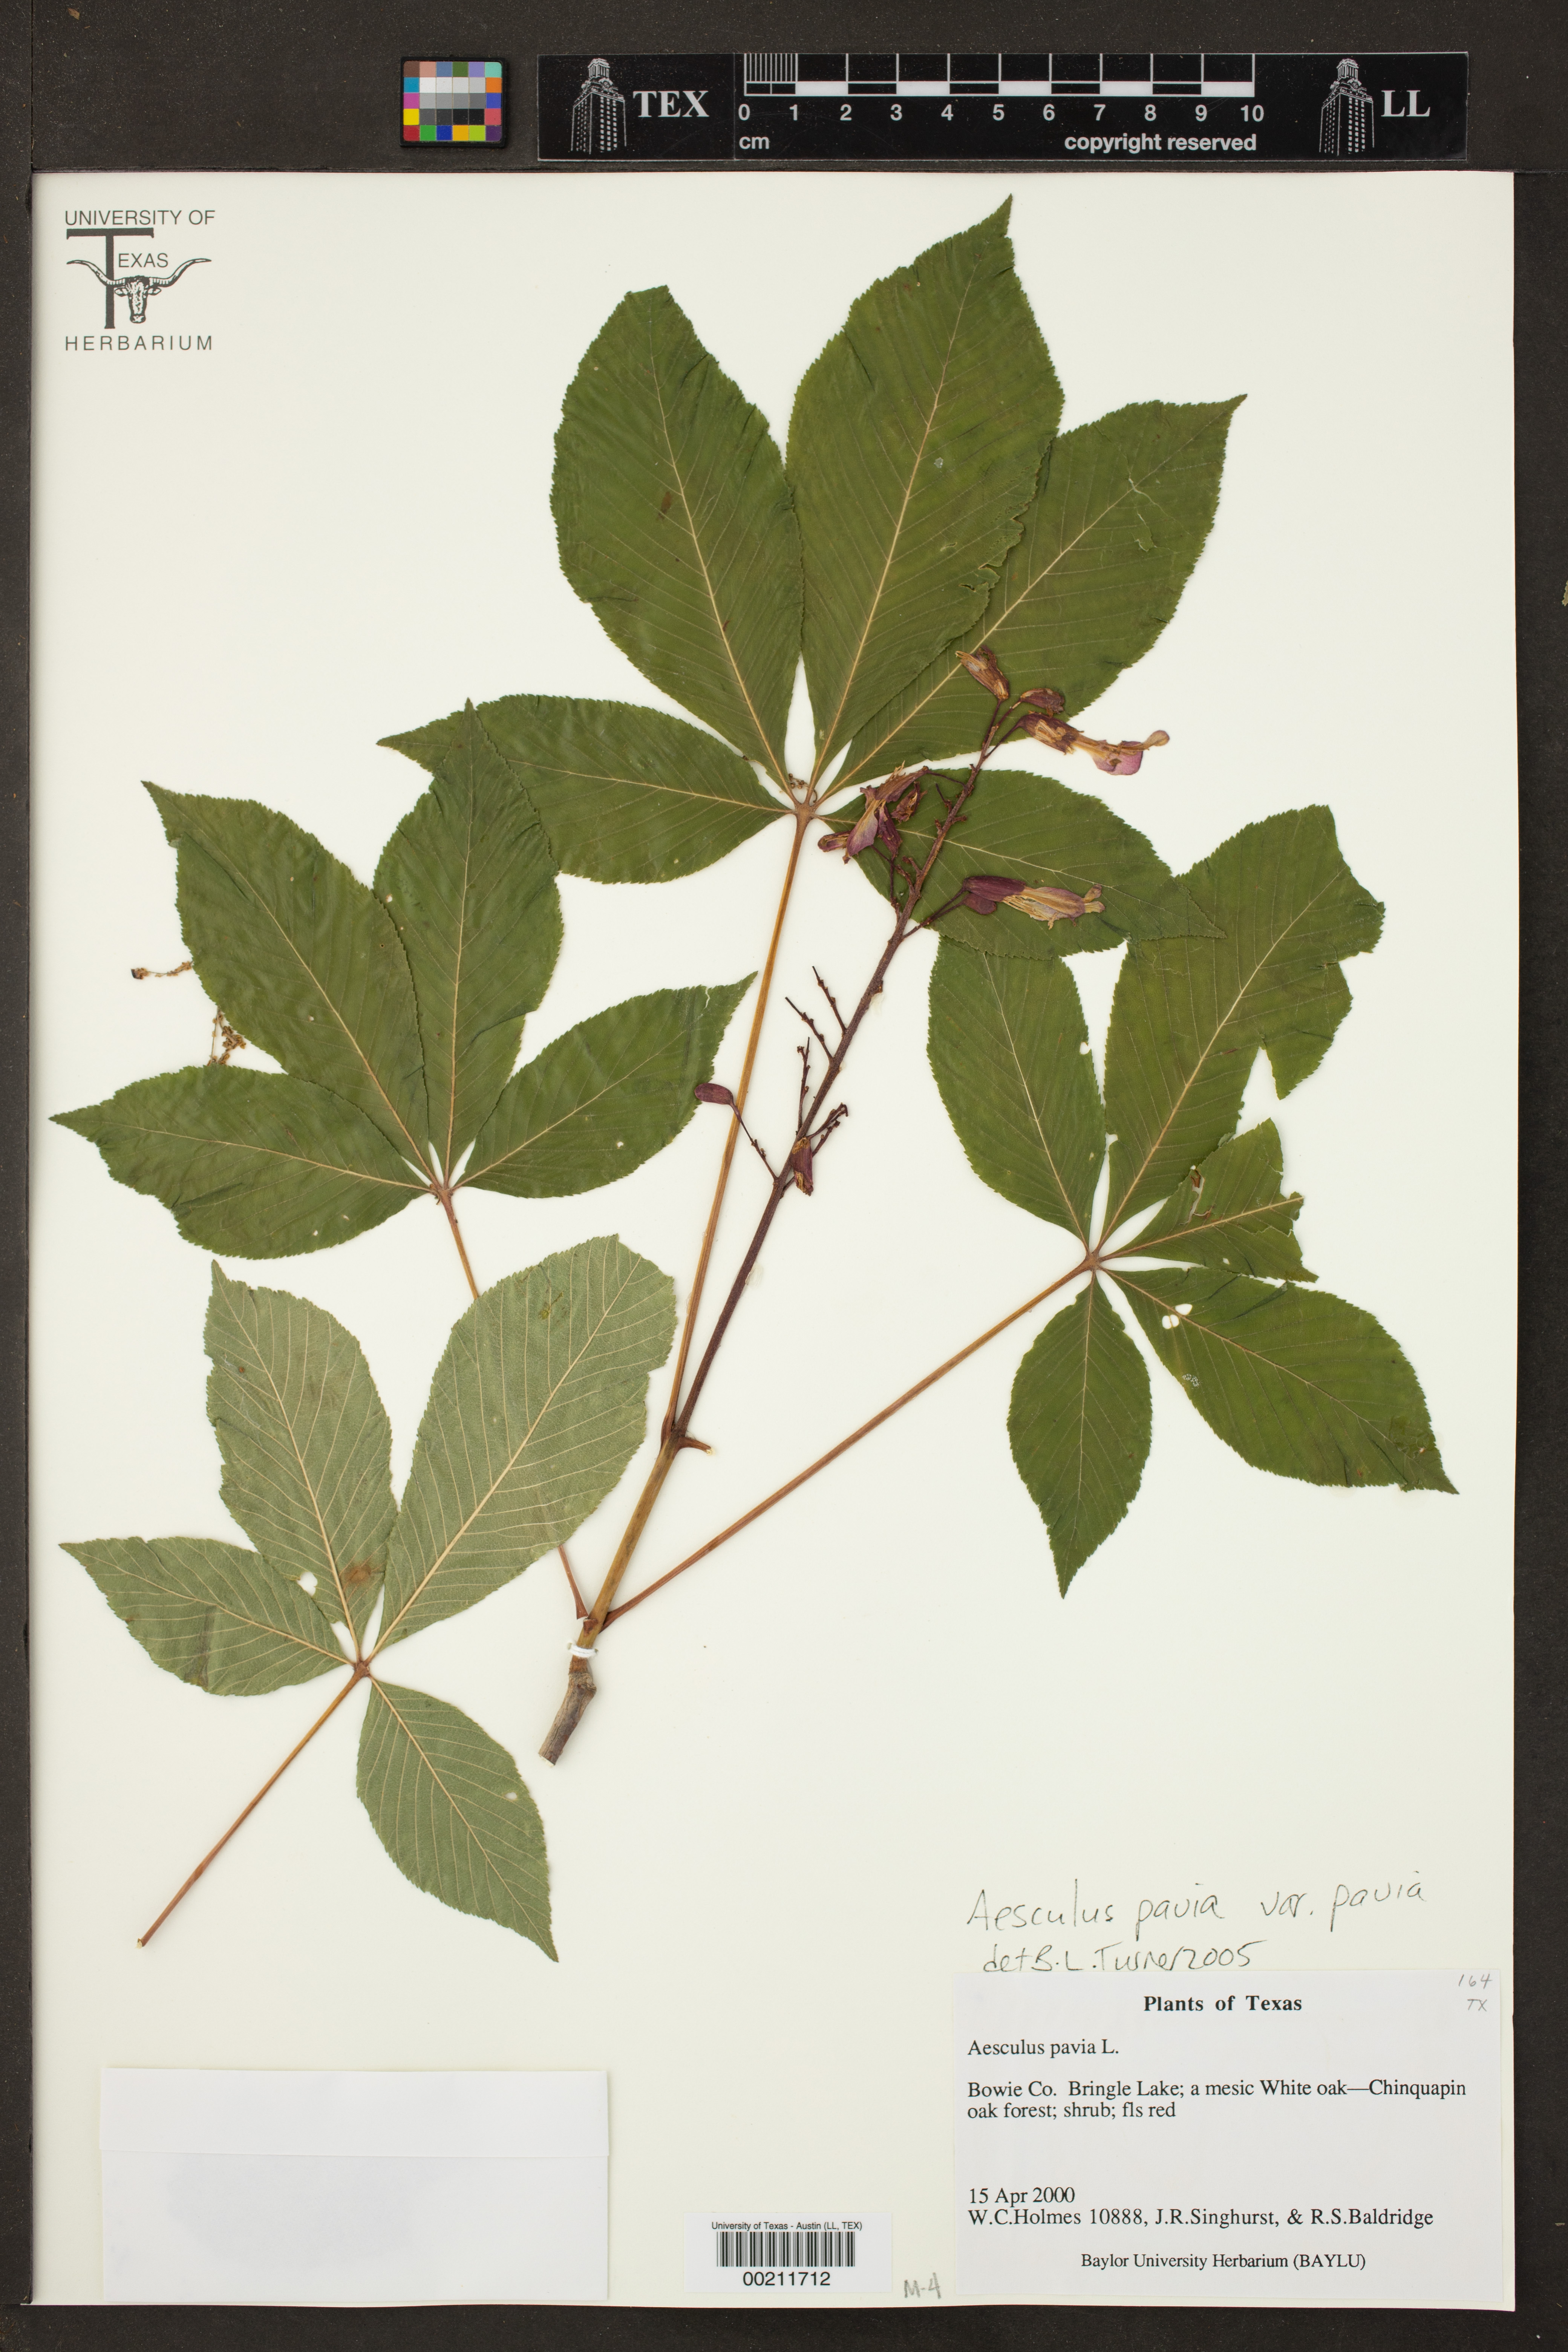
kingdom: Plantae
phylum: Tracheophyta
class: Magnoliopsida
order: Sapindales
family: Sapindaceae
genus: Aesculus
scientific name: Aesculus pavia
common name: Red buckeye
